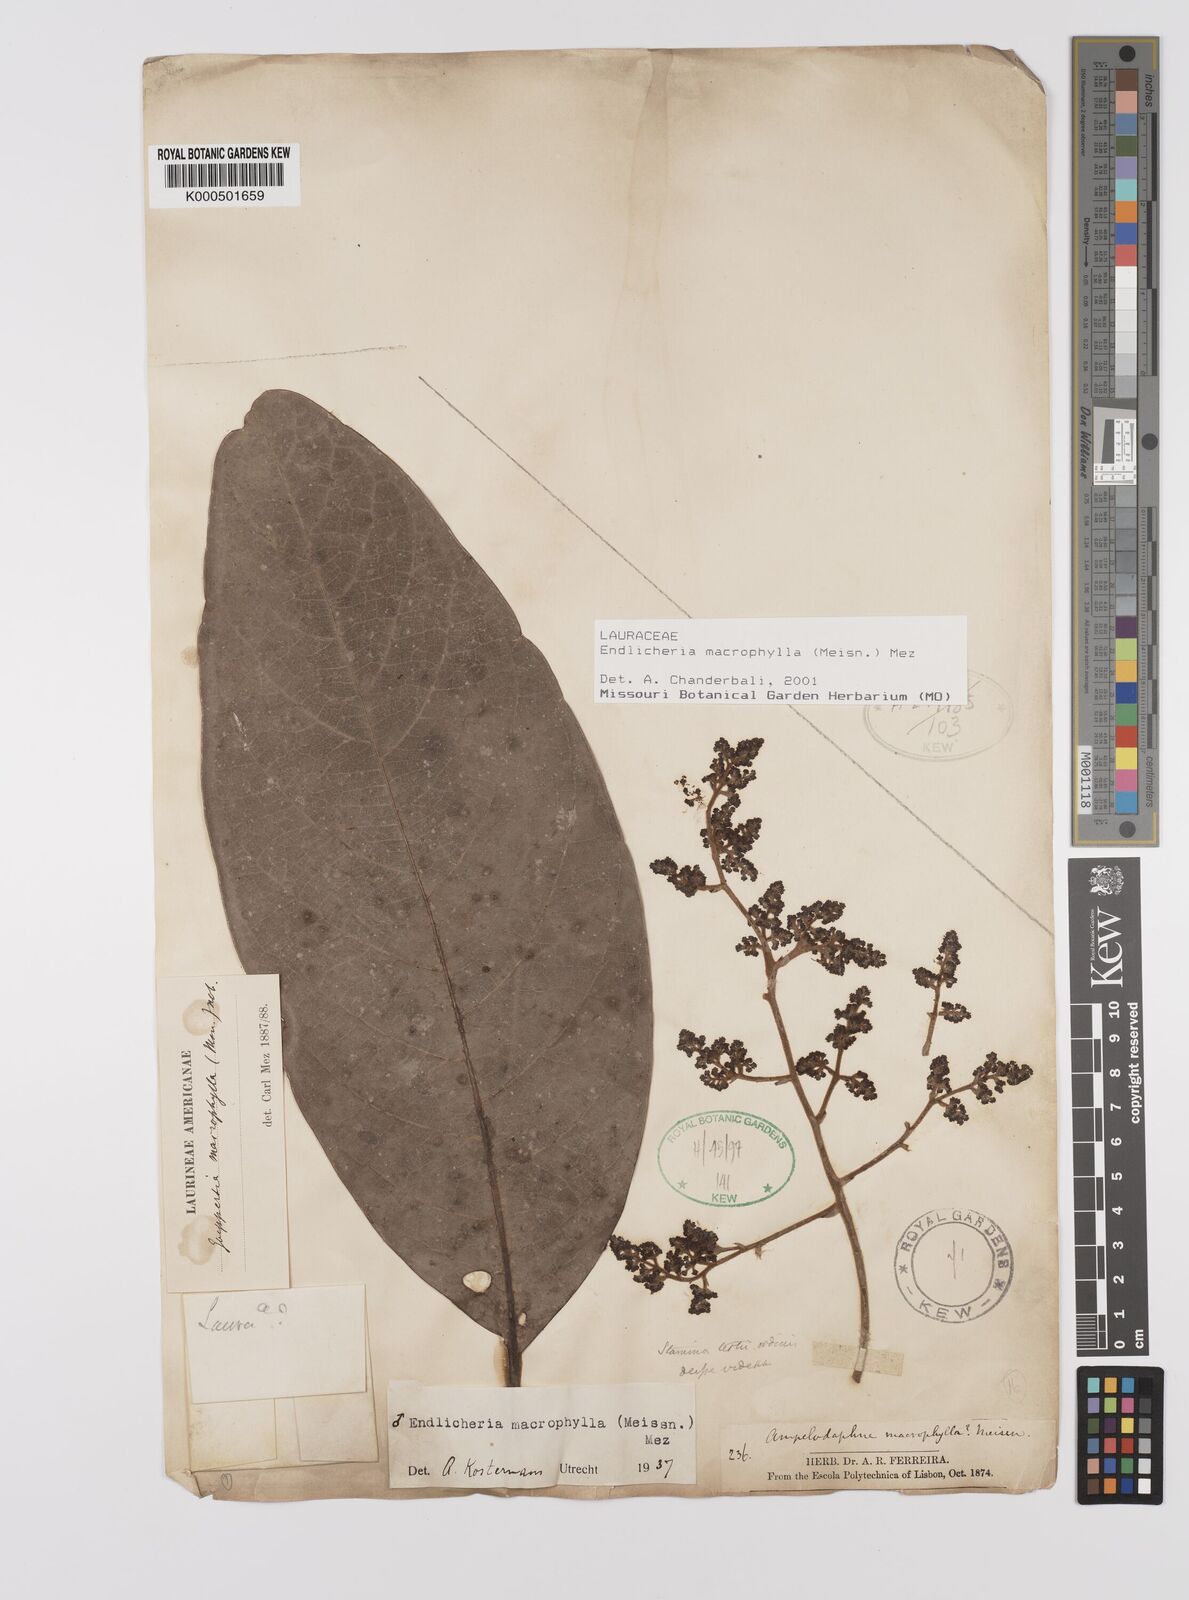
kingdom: Plantae
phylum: Tracheophyta
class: Magnoliopsida
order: Laurales
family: Lauraceae
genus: Endlicheria
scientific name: Endlicheria macrophylla
